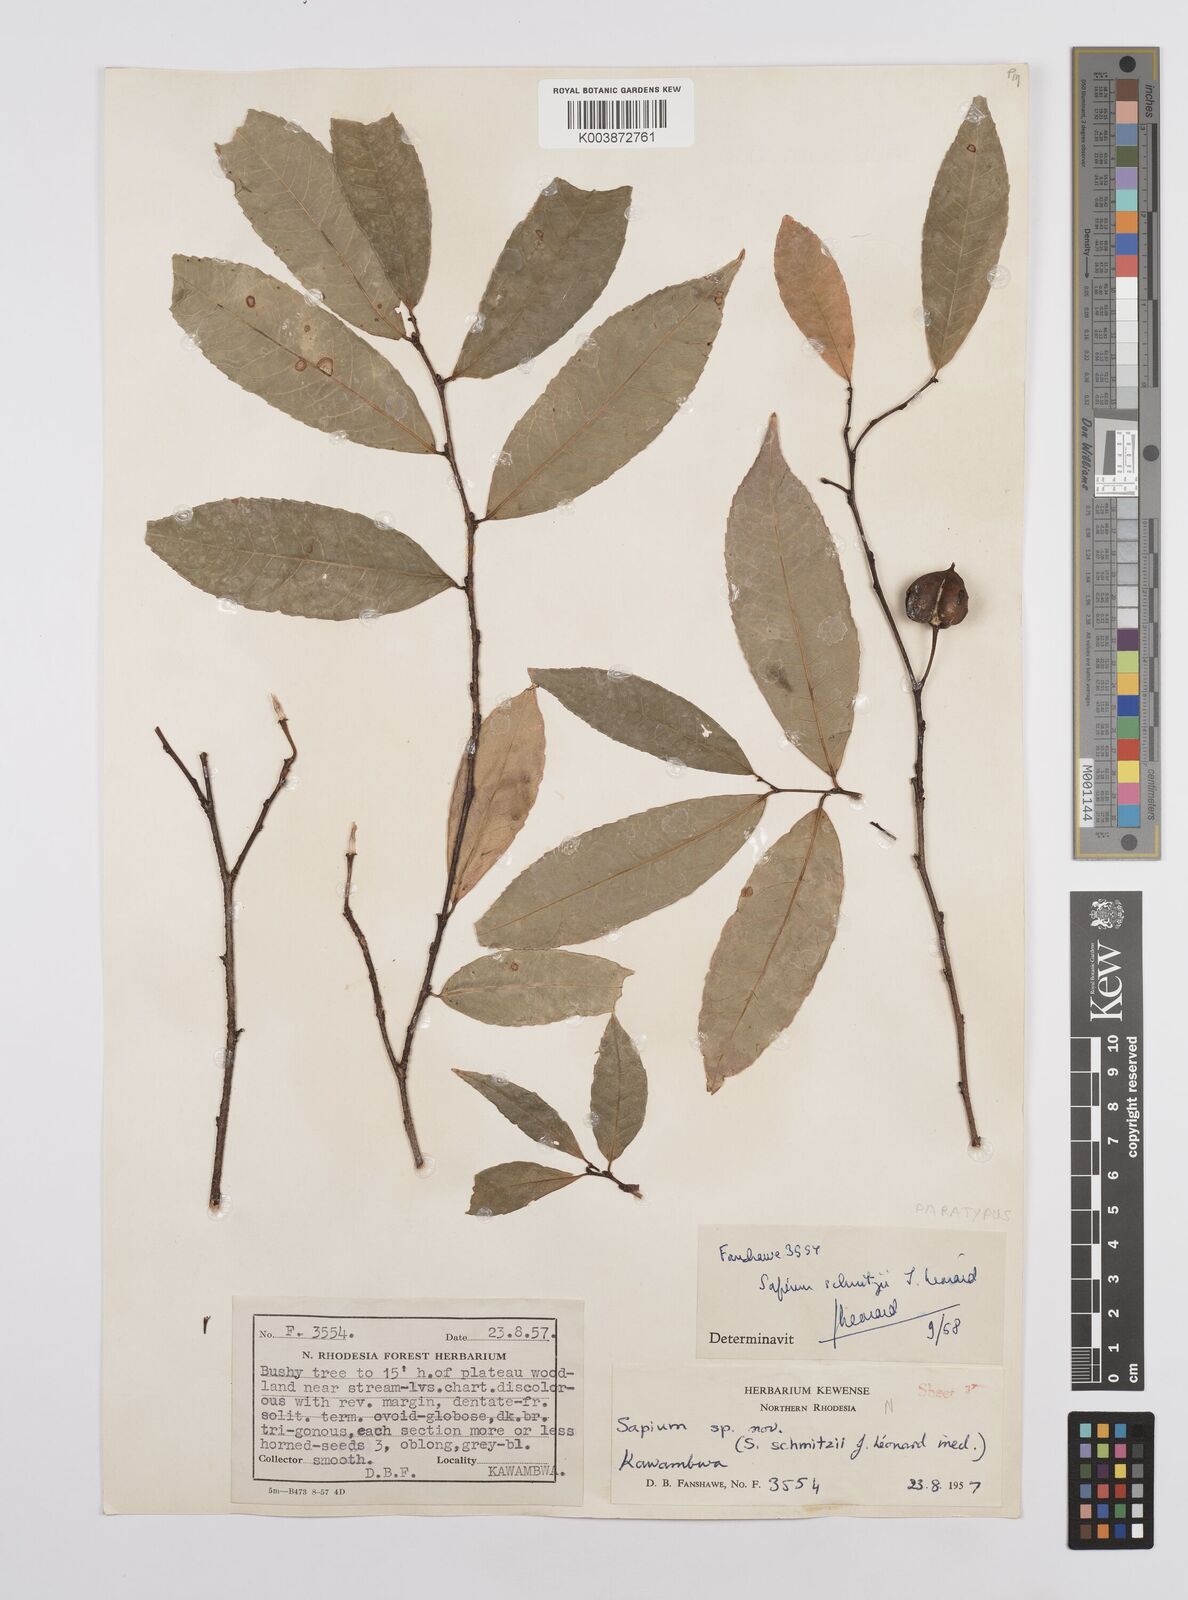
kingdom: Plantae
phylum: Tracheophyta
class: Magnoliopsida
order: Malpighiales
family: Euphorbiaceae
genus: Sclerocroton
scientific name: Sclerocroton schmitzii
